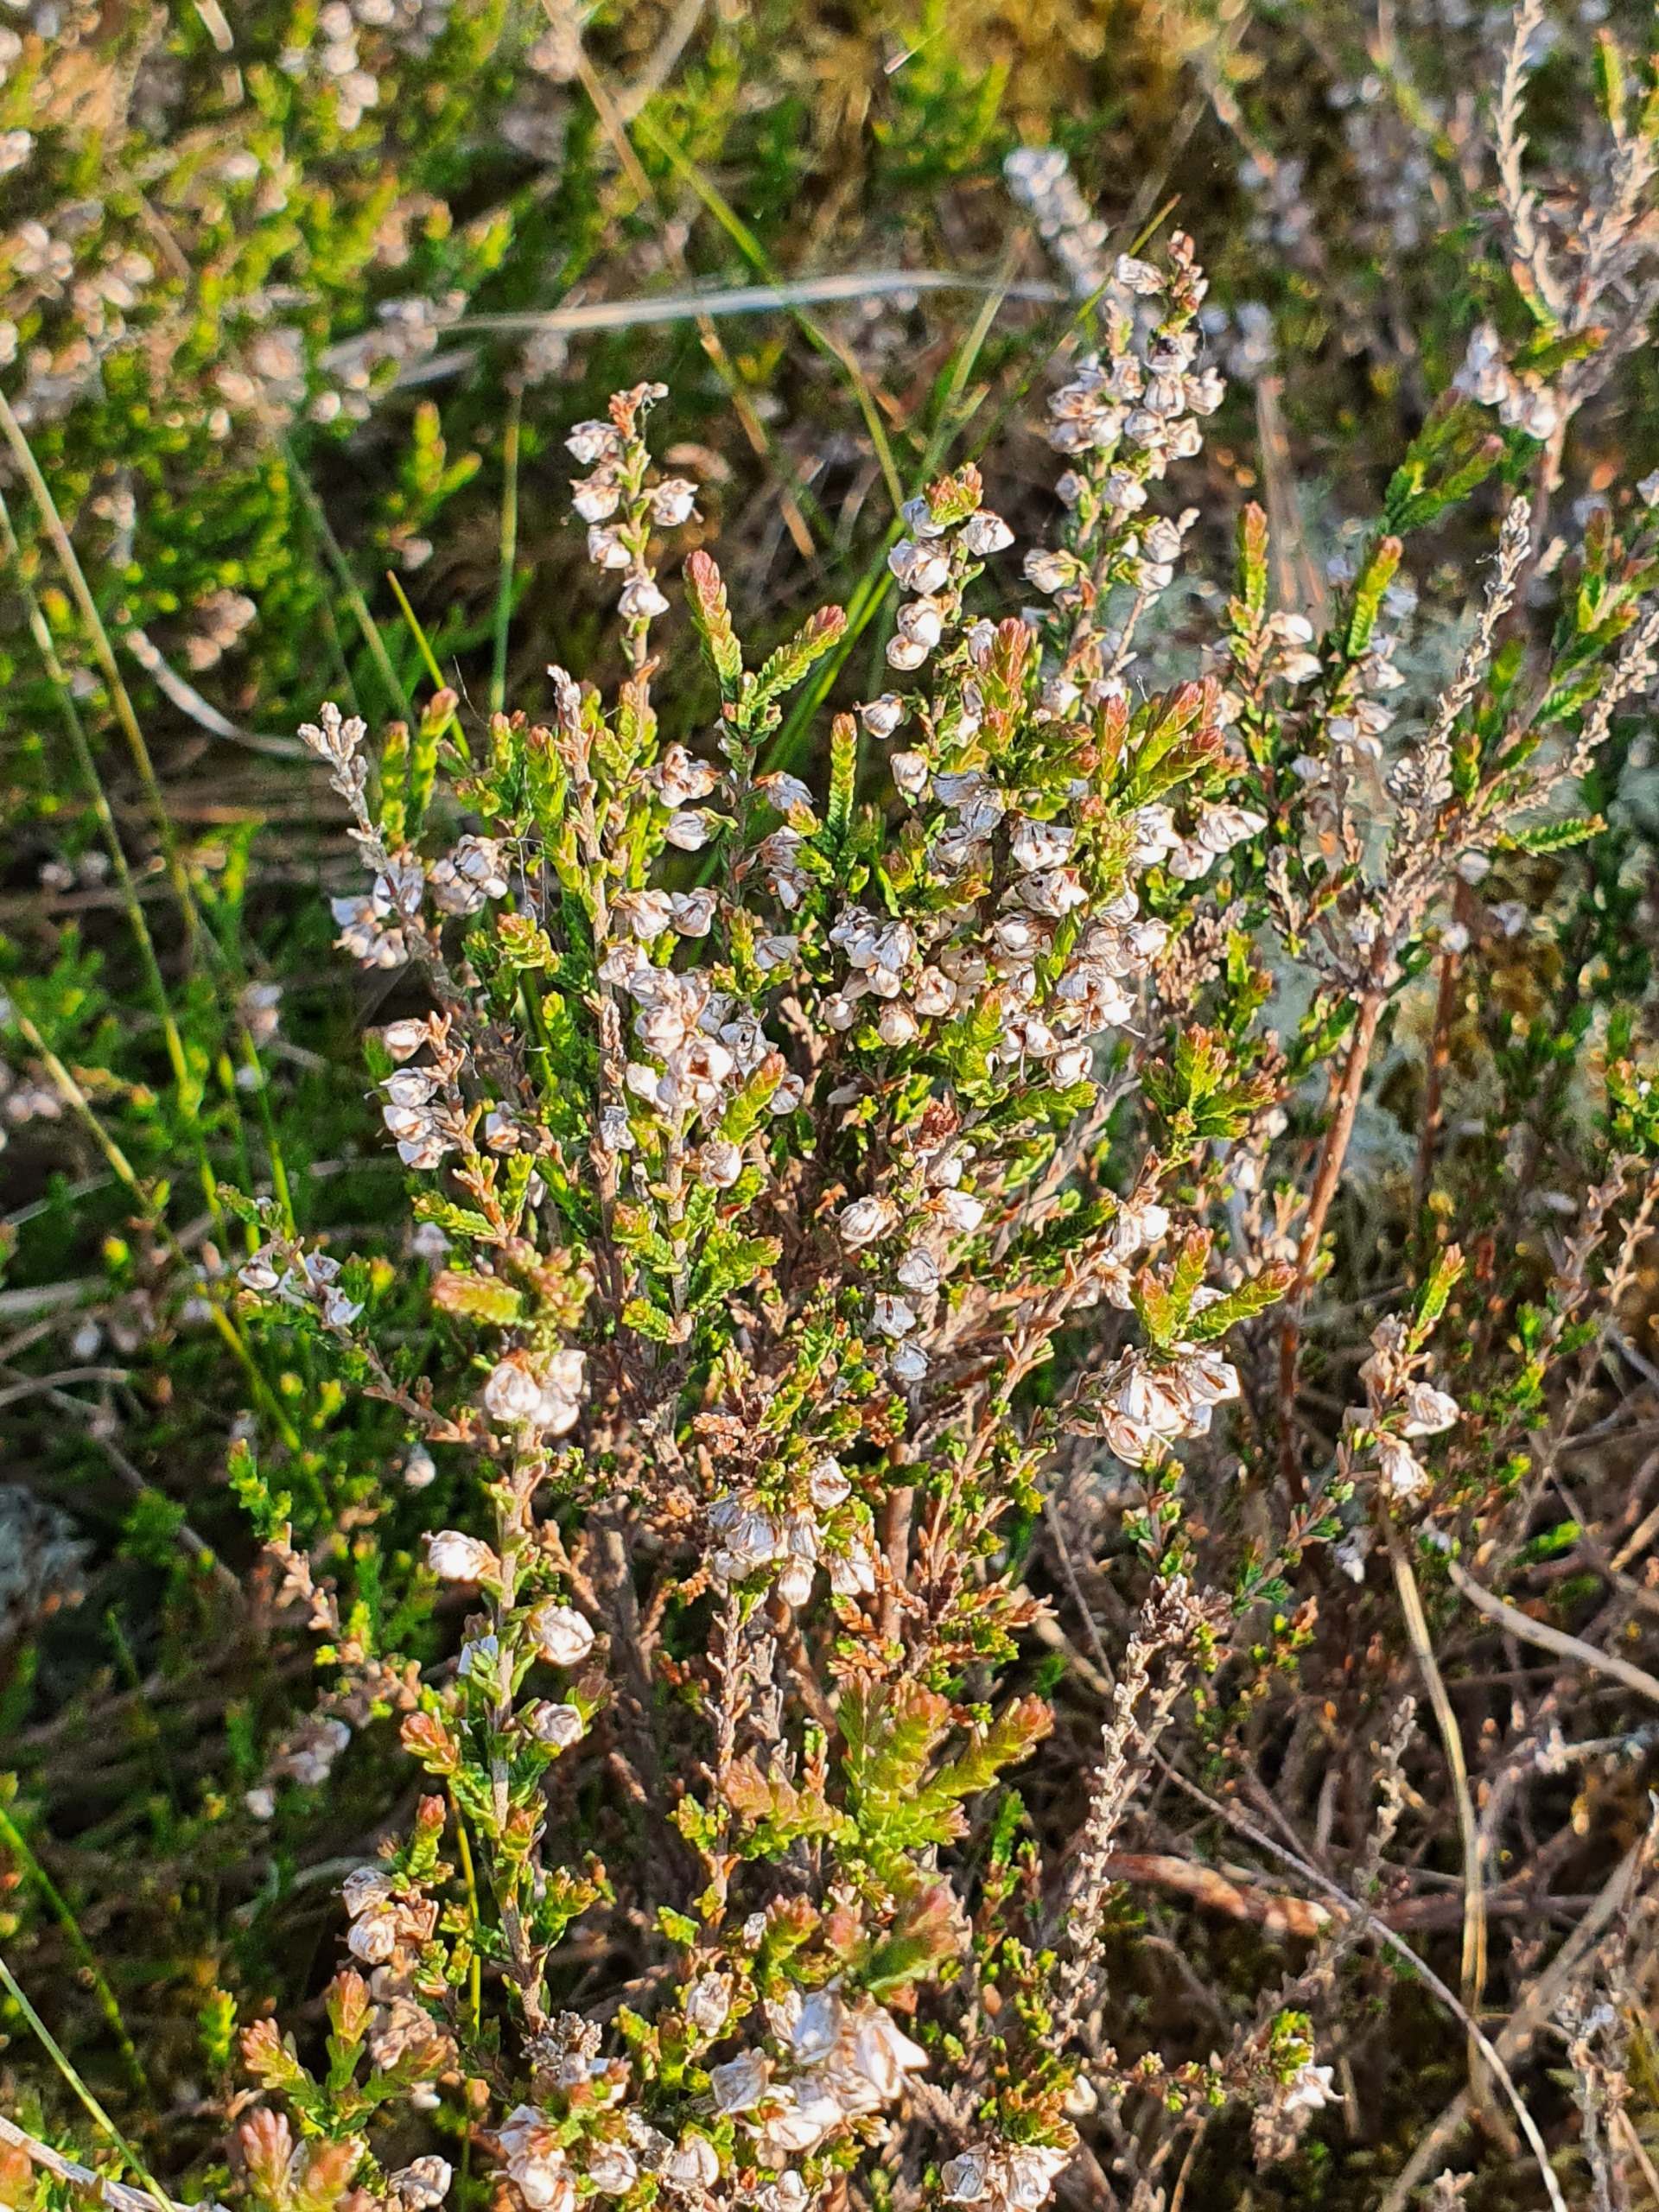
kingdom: Plantae
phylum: Tracheophyta
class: Magnoliopsida
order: Ericales
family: Ericaceae
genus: Calluna
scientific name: Calluna vulgaris
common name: Hedelyng
